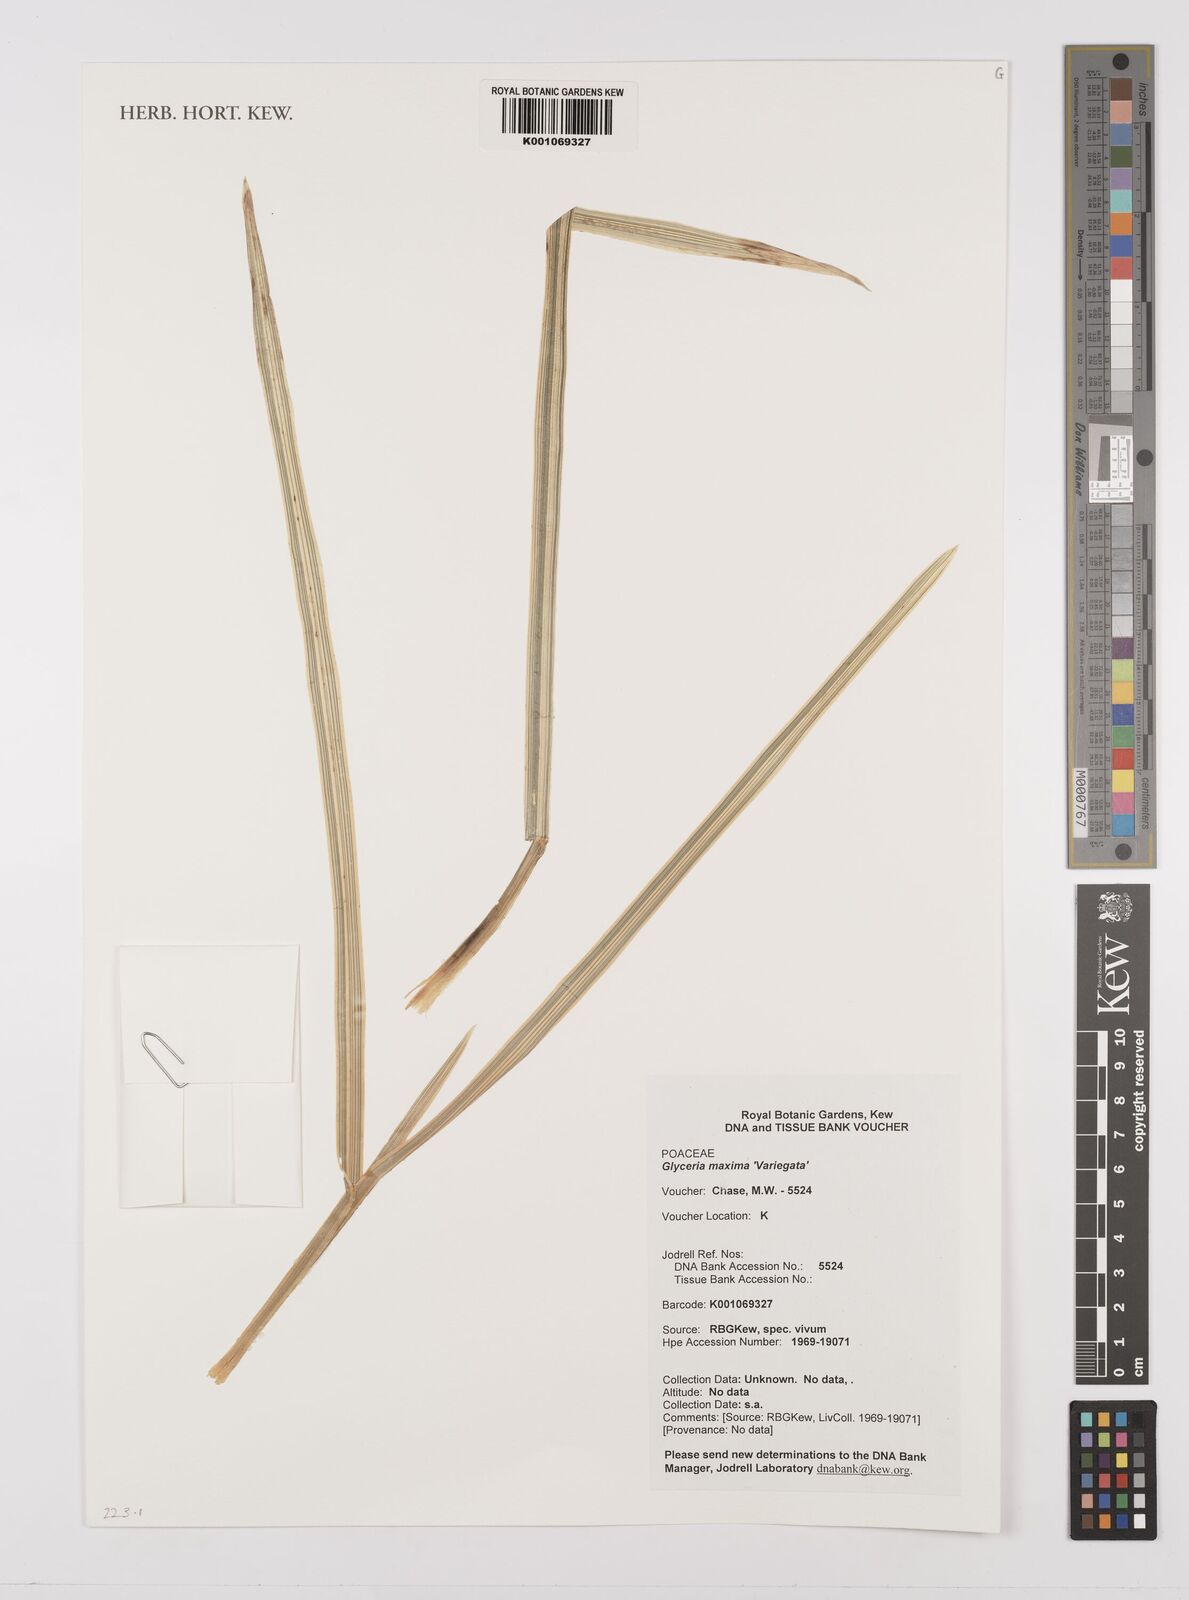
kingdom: Plantae
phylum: Tracheophyta
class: Liliopsida
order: Poales
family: Poaceae
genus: Glyceria
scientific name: Glyceria maxima
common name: Reed mannagrass
